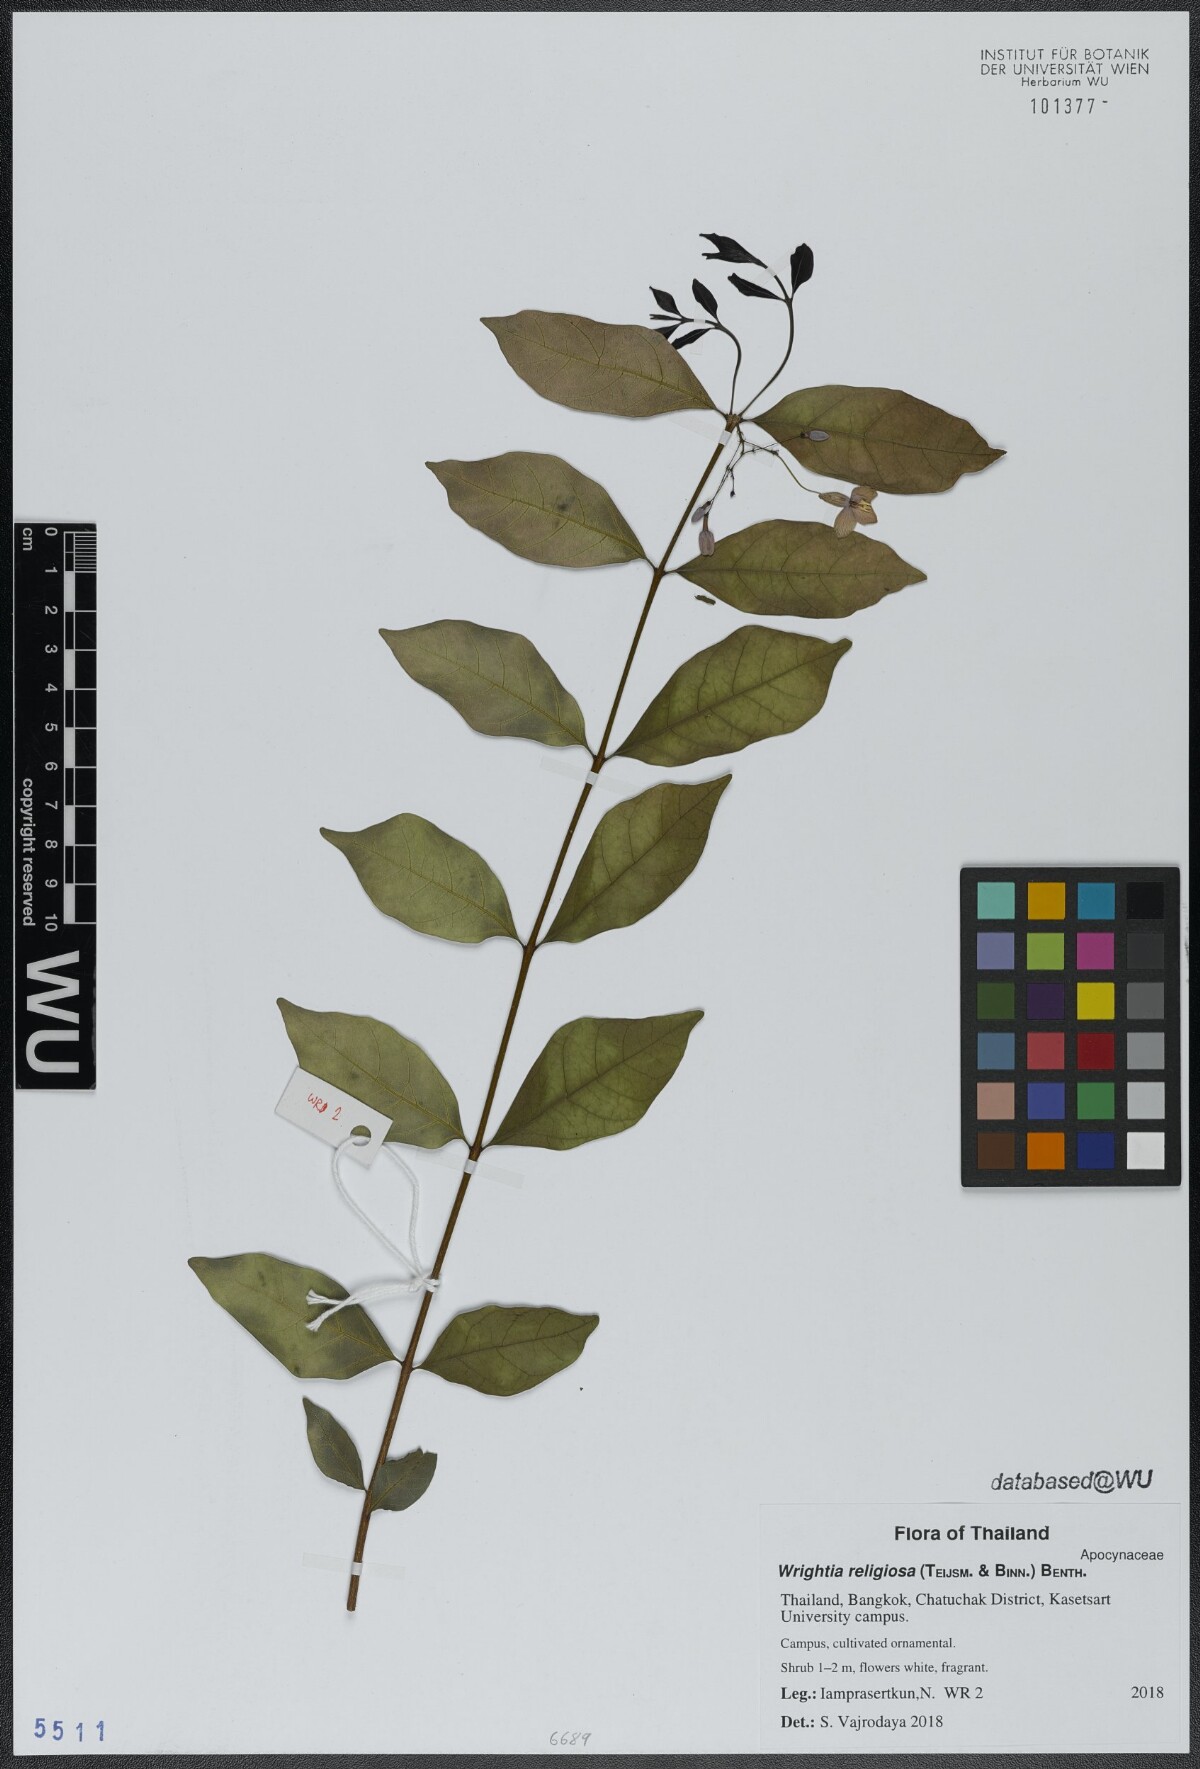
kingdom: Plantae
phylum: Tracheophyta
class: Magnoliopsida
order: Gentianales
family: Apocynaceae
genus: Wrightia
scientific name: Wrightia religiosa
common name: Water-jasmine
